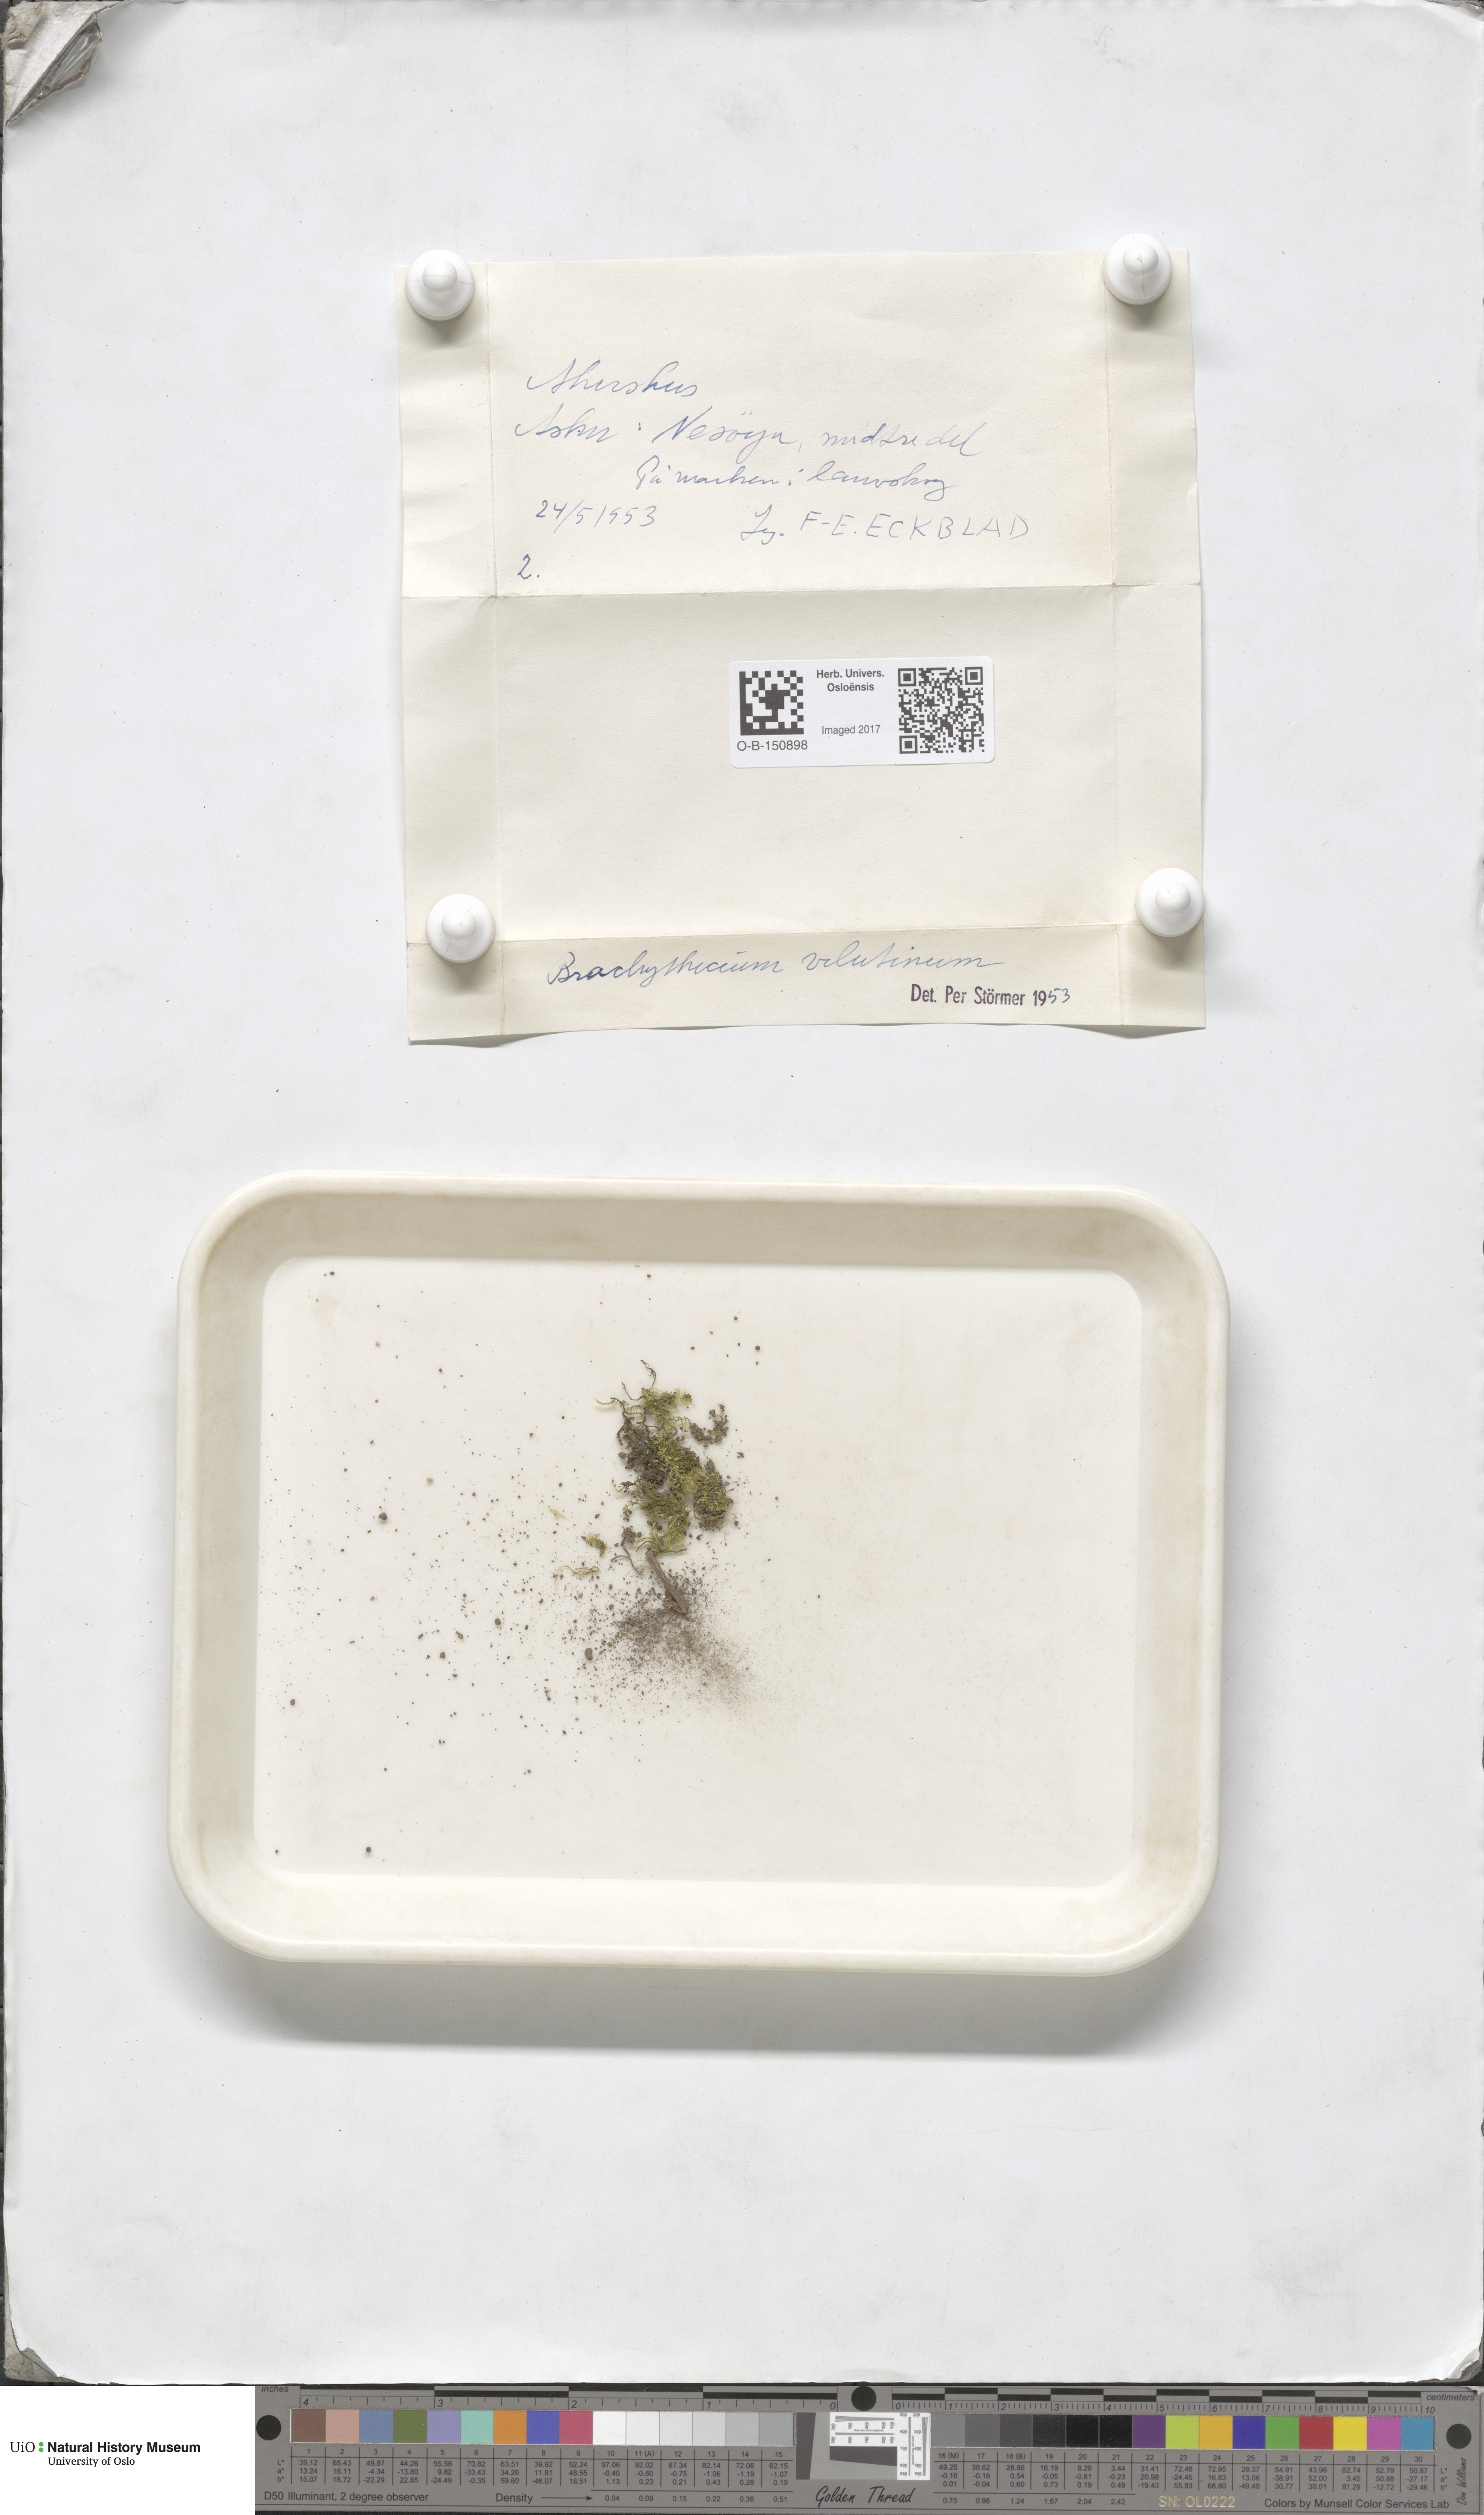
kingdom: Plantae
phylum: Bryophyta
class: Bryopsida
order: Hypnales
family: Brachytheciaceae
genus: Brachytheciastrum
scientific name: Brachytheciastrum velutinum
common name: Velvet feather-moss
